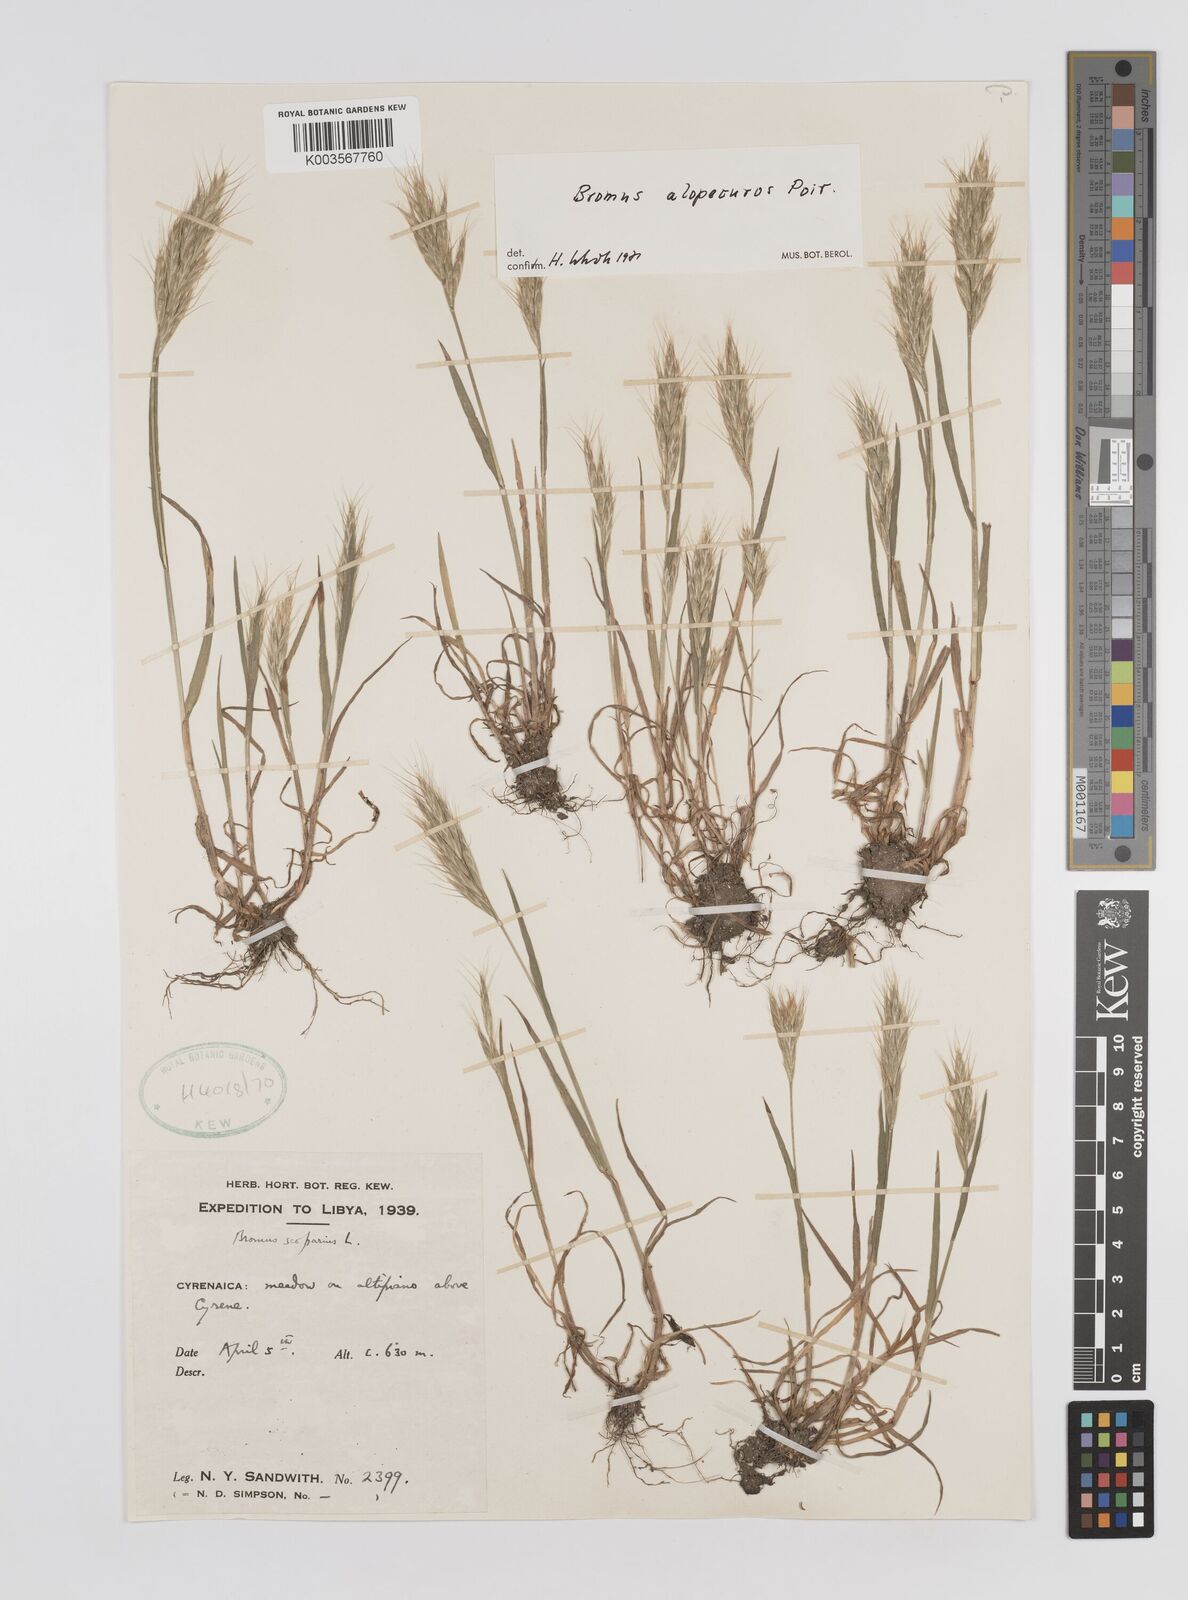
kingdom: Plantae
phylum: Tracheophyta
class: Liliopsida
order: Poales
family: Poaceae
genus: Bromus
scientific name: Bromus alopecuros
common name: Weedy brome
